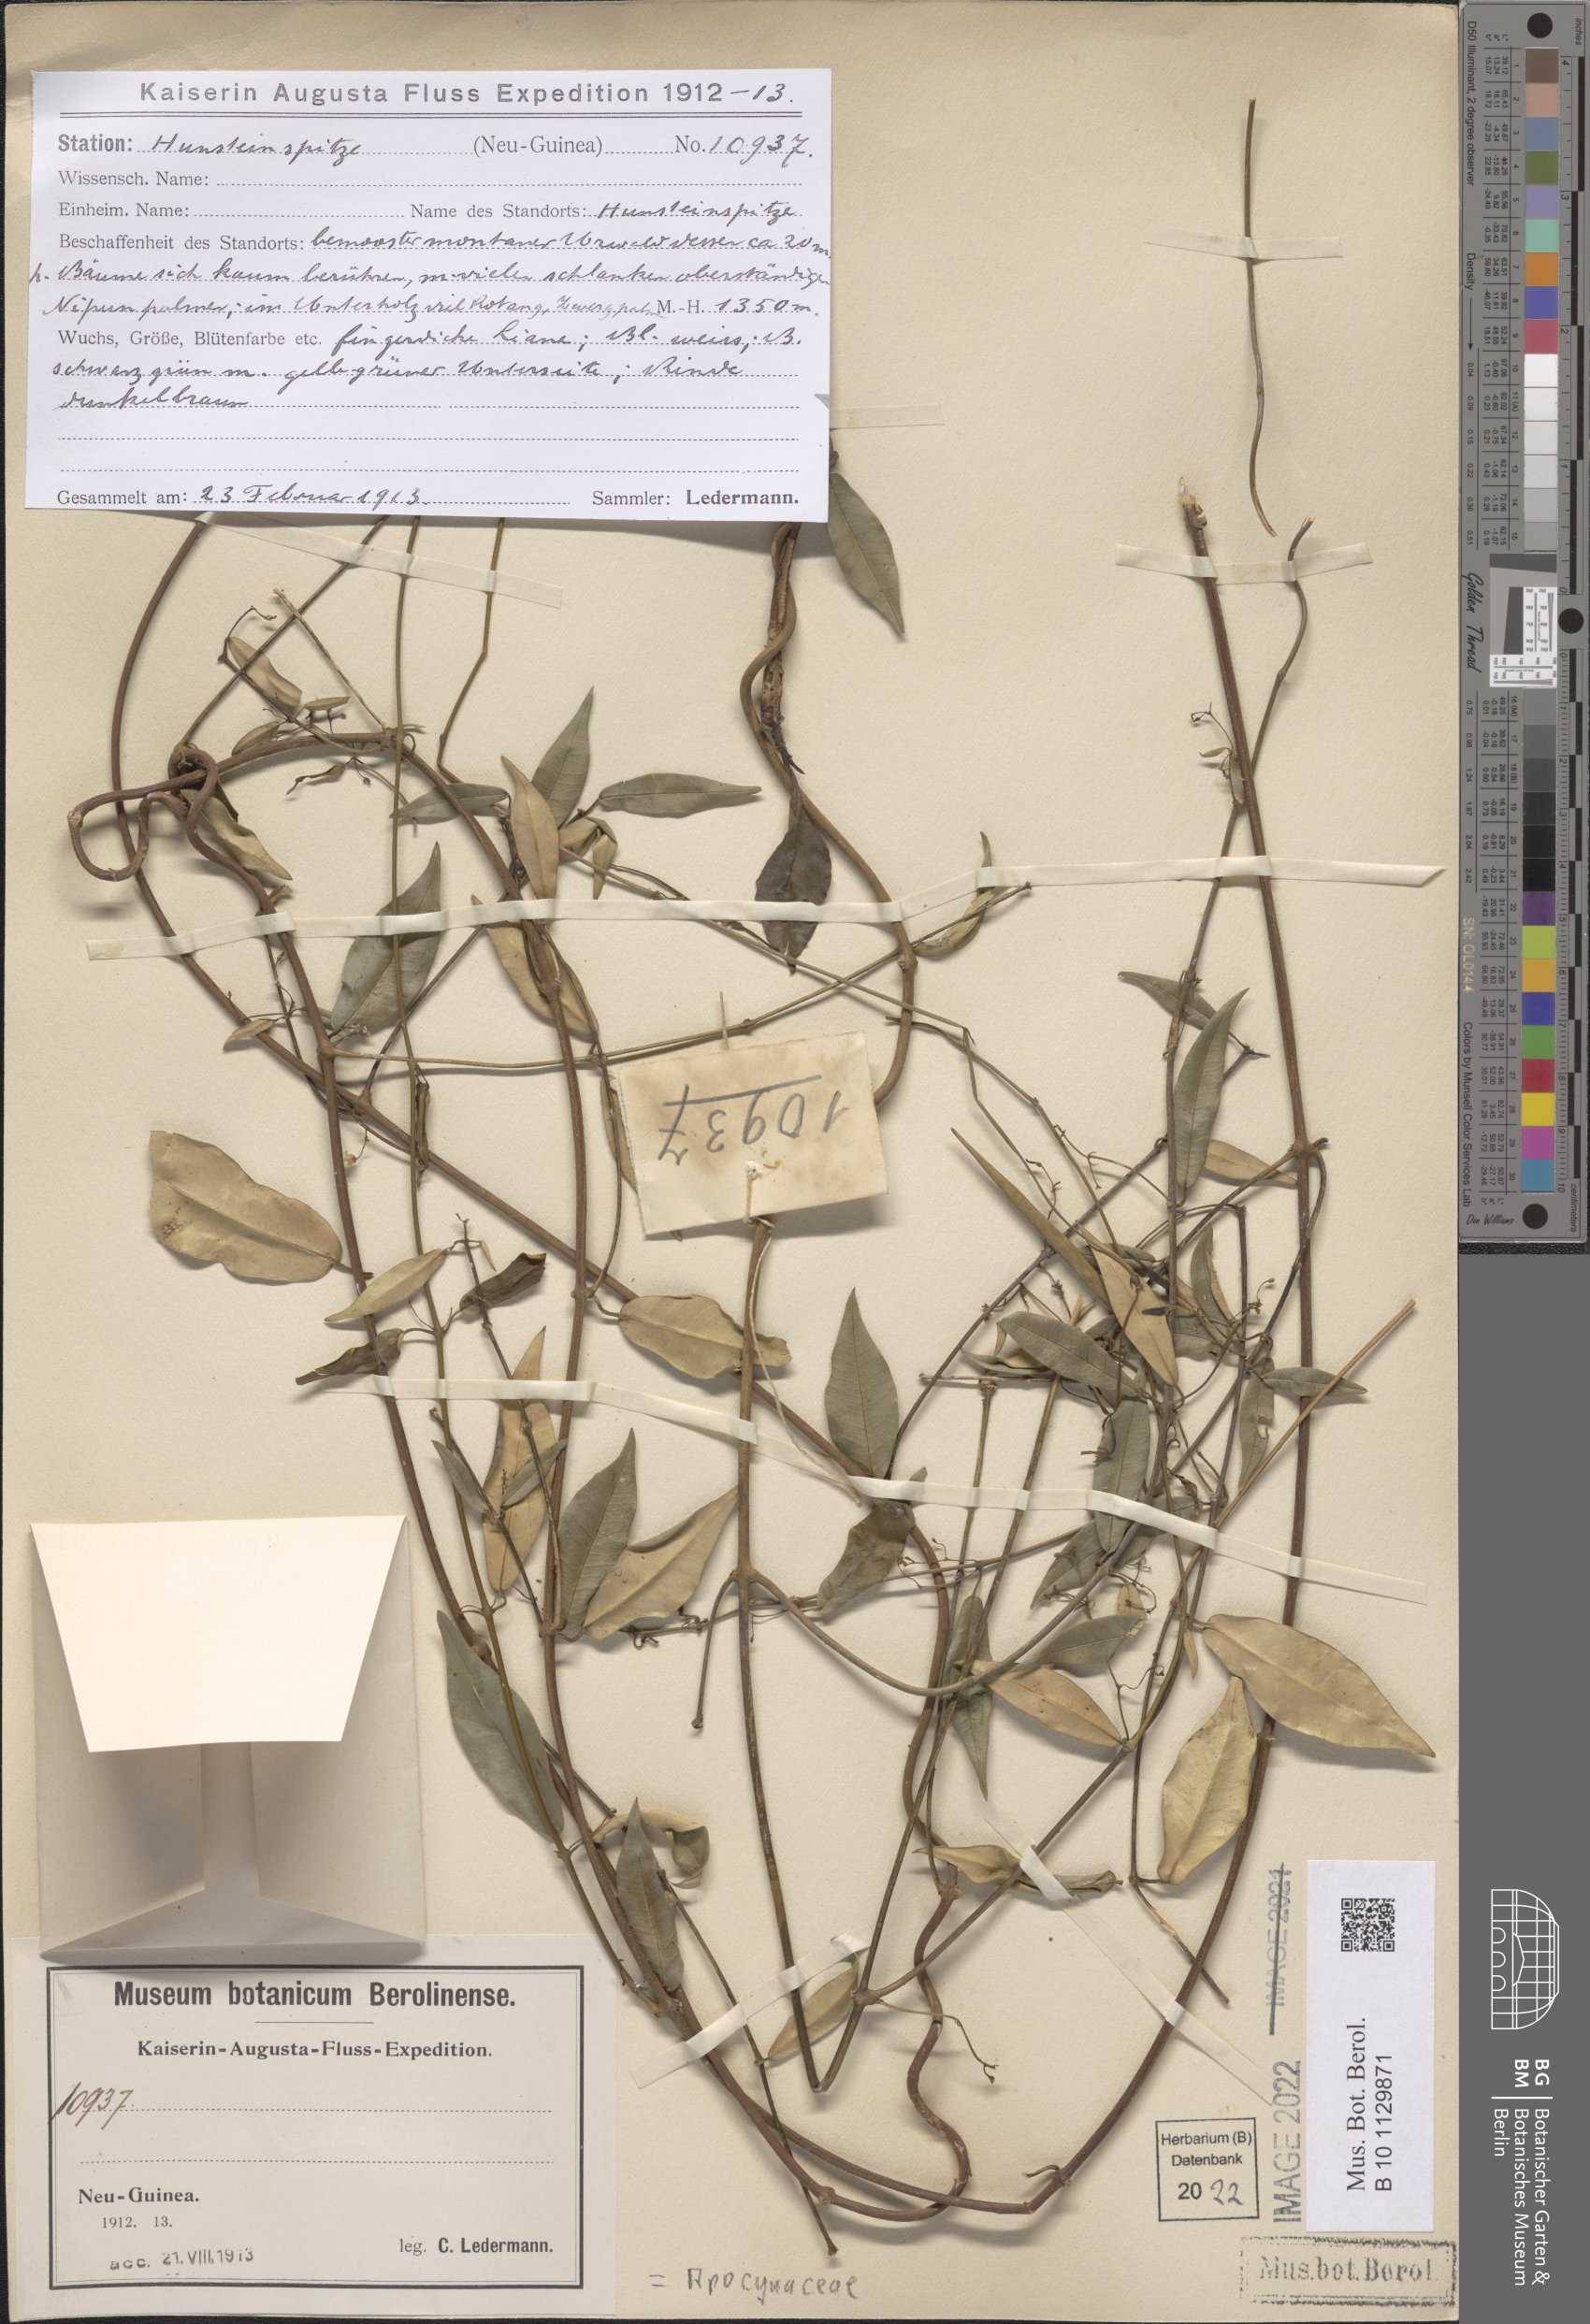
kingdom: Plantae
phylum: Tracheophyta
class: Magnoliopsida
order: Gentianales
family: Apocynaceae
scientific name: Apocynaceae
